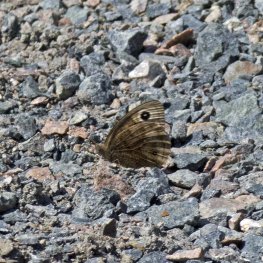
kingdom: Animalia
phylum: Arthropoda
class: Insecta
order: Lepidoptera
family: Nymphalidae
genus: Cercyonis
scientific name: Cercyonis pegala
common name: Common Wood-Nymph
